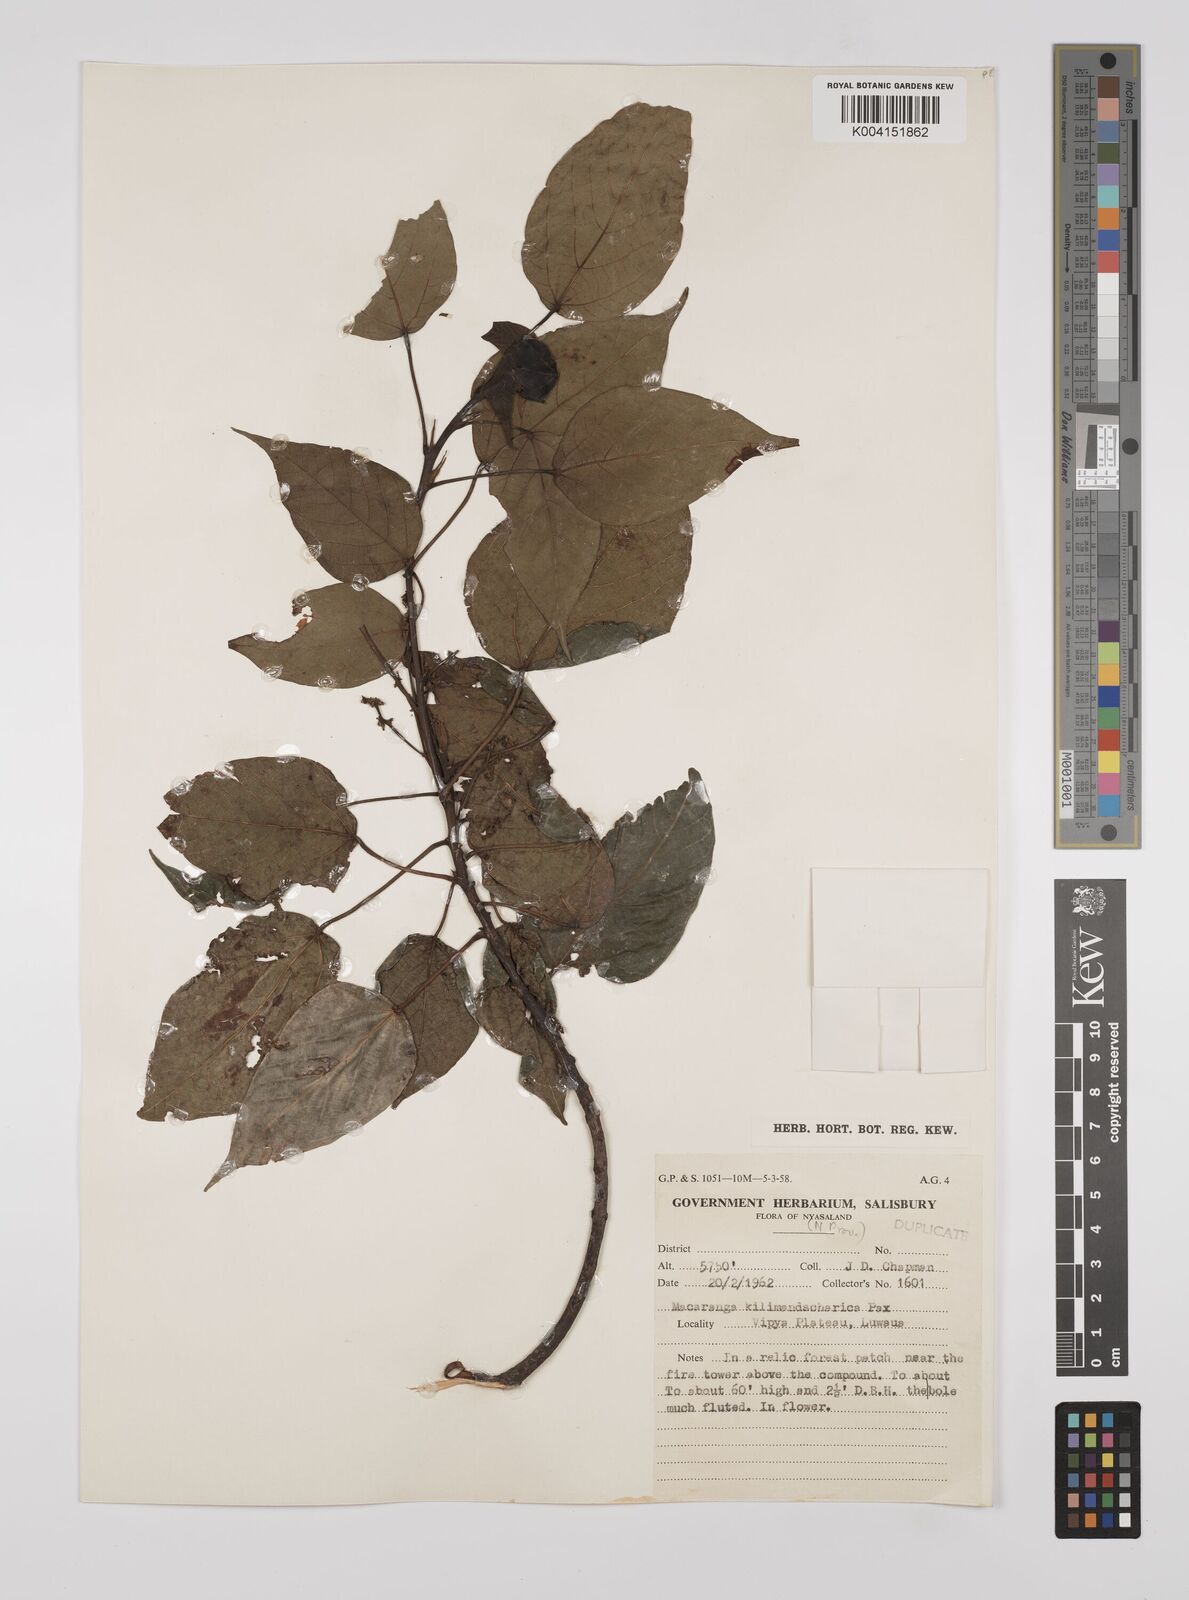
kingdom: Plantae
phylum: Tracheophyta
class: Magnoliopsida
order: Malpighiales
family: Euphorbiaceae
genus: Macaranga
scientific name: Macaranga kilimandscharica
